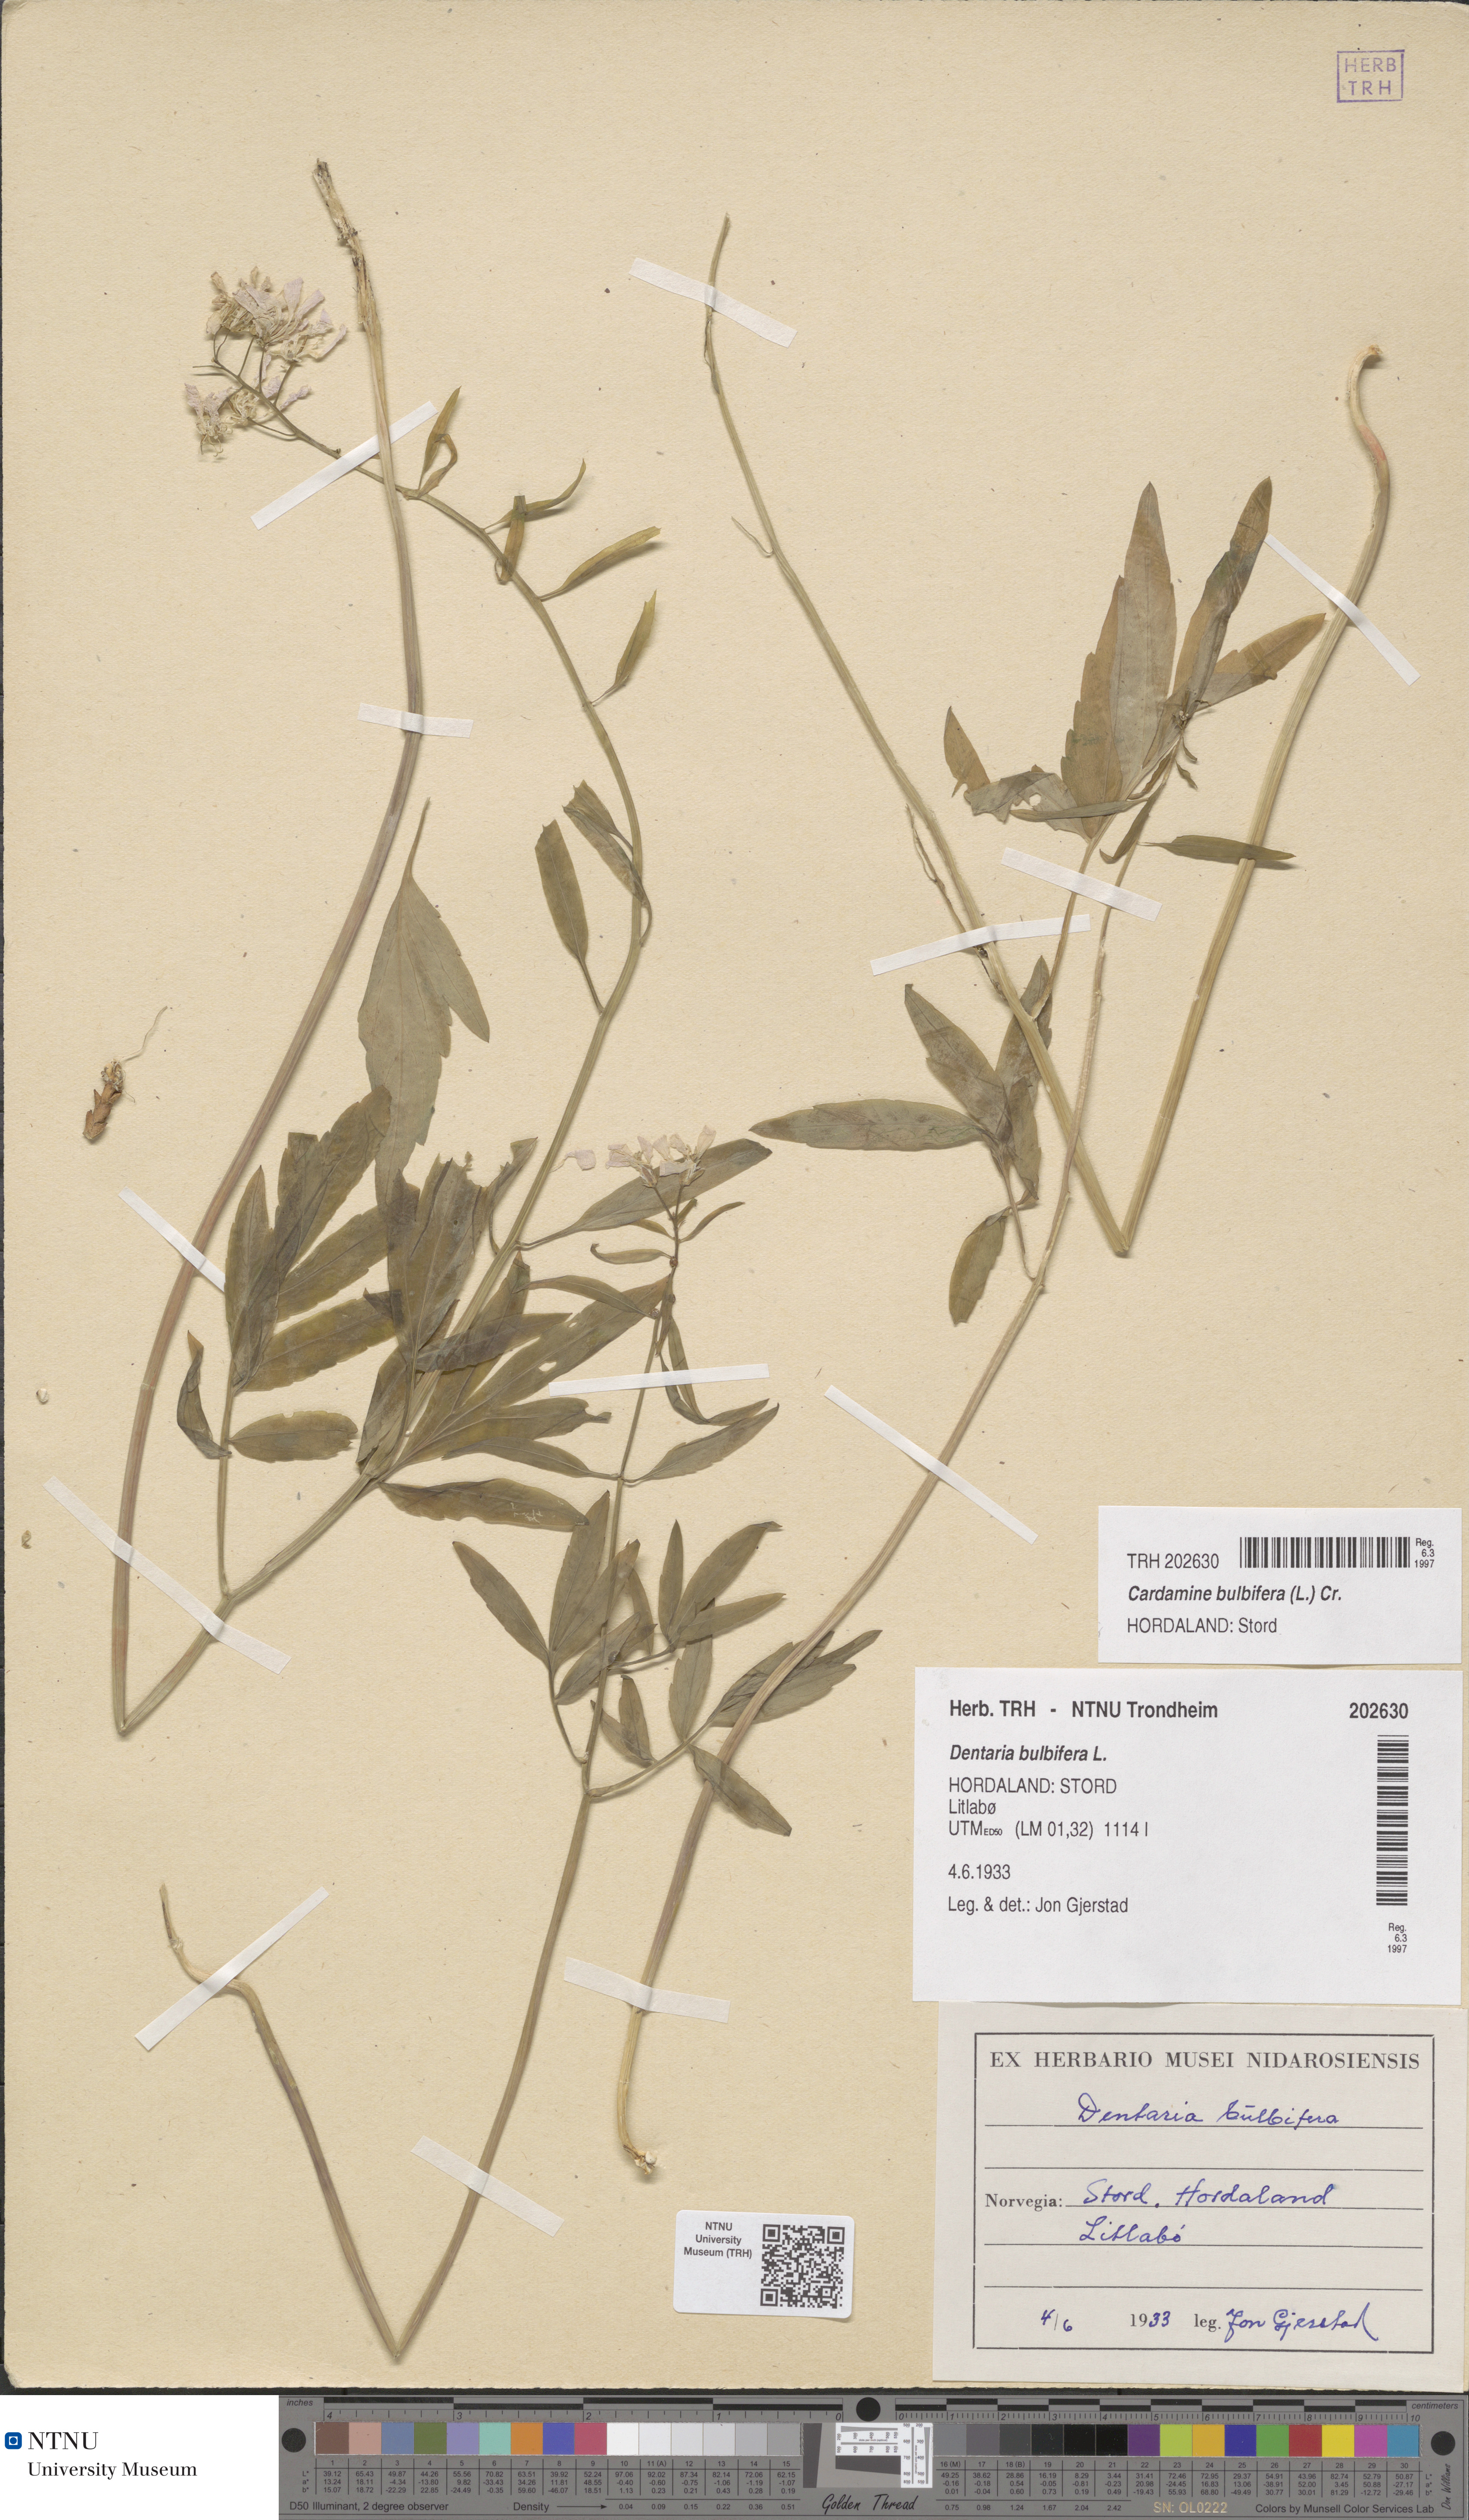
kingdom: Plantae
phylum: Tracheophyta
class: Magnoliopsida
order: Brassicales
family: Brassicaceae
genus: Cardamine
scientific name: Cardamine bulbifera
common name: Coralroot bittercress
